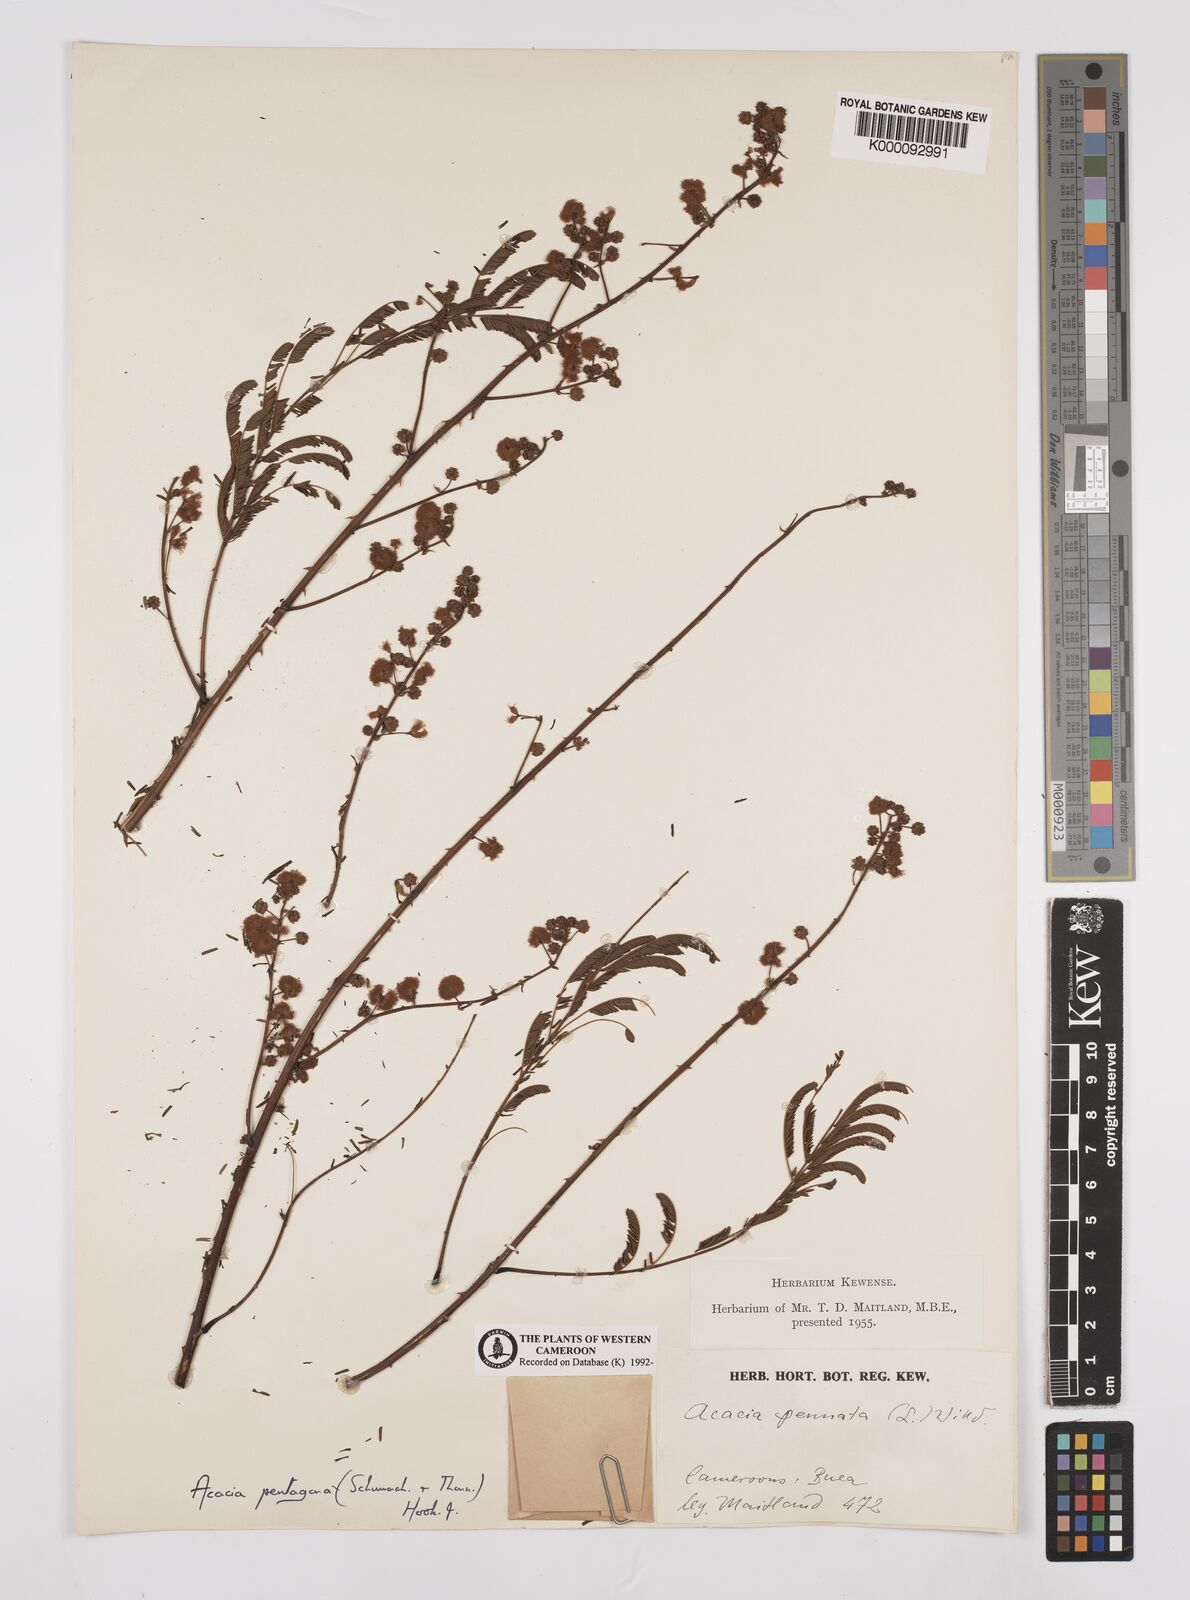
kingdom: Plantae
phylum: Tracheophyta
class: Magnoliopsida
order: Fabales
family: Fabaceae
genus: Senegalia
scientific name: Senegalia pentagona
